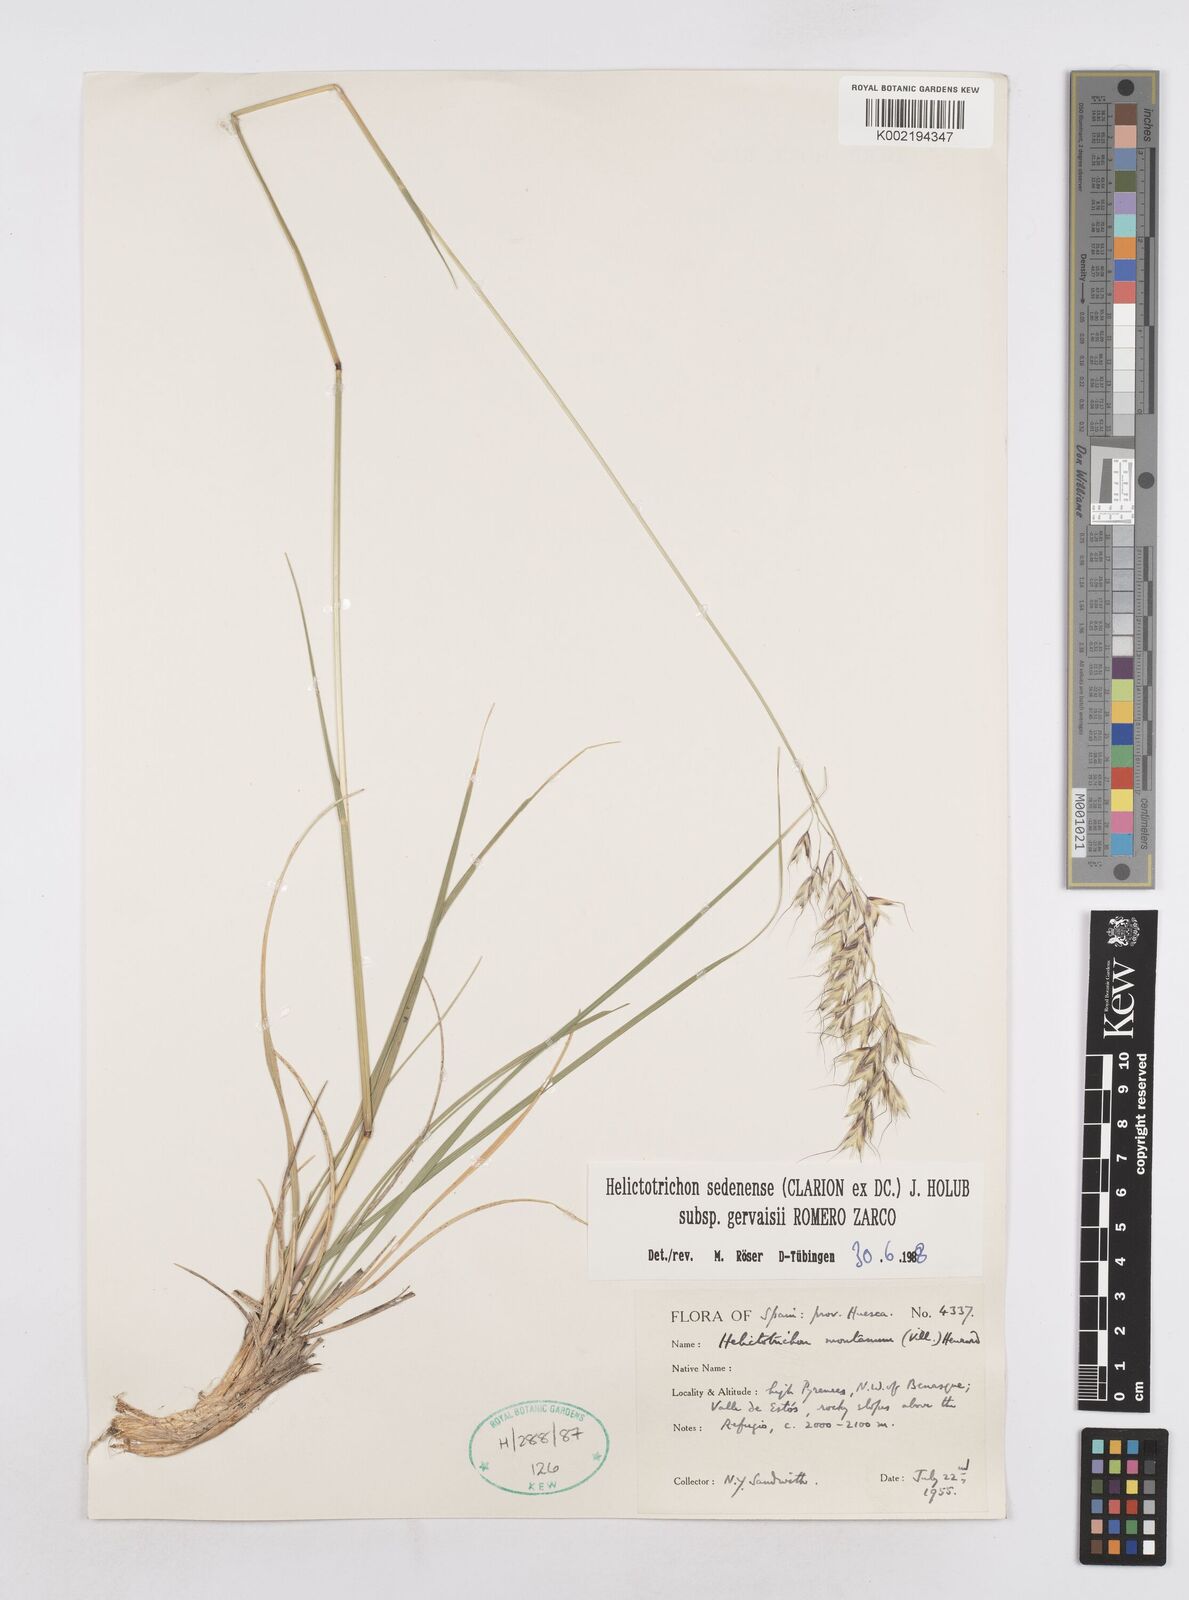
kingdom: Plantae
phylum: Tracheophyta
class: Liliopsida
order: Poales
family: Poaceae
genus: Helictotrichon
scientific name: Helictotrichon sedenense
